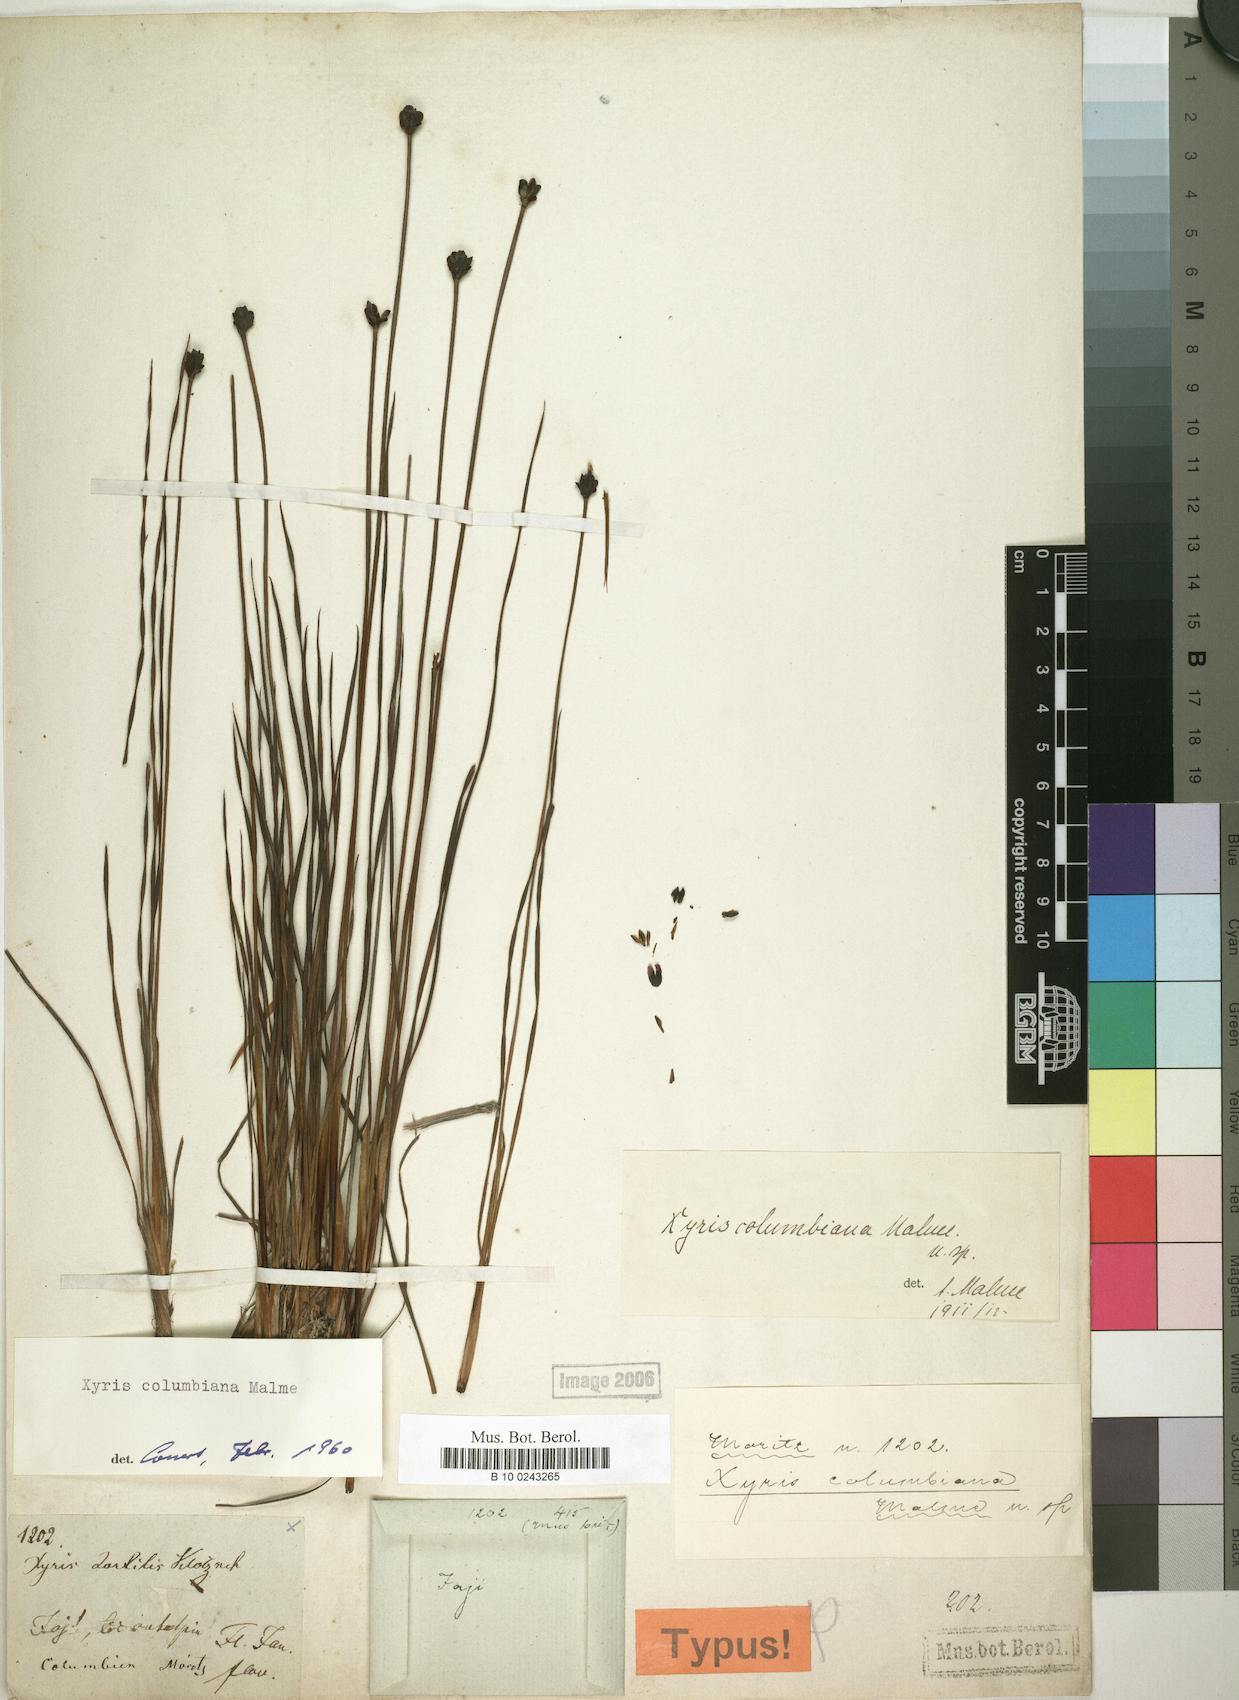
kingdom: Plantae
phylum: Tracheophyta
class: Liliopsida
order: Poales
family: Xyridaceae
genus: Xyris
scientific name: Xyris columbiana
